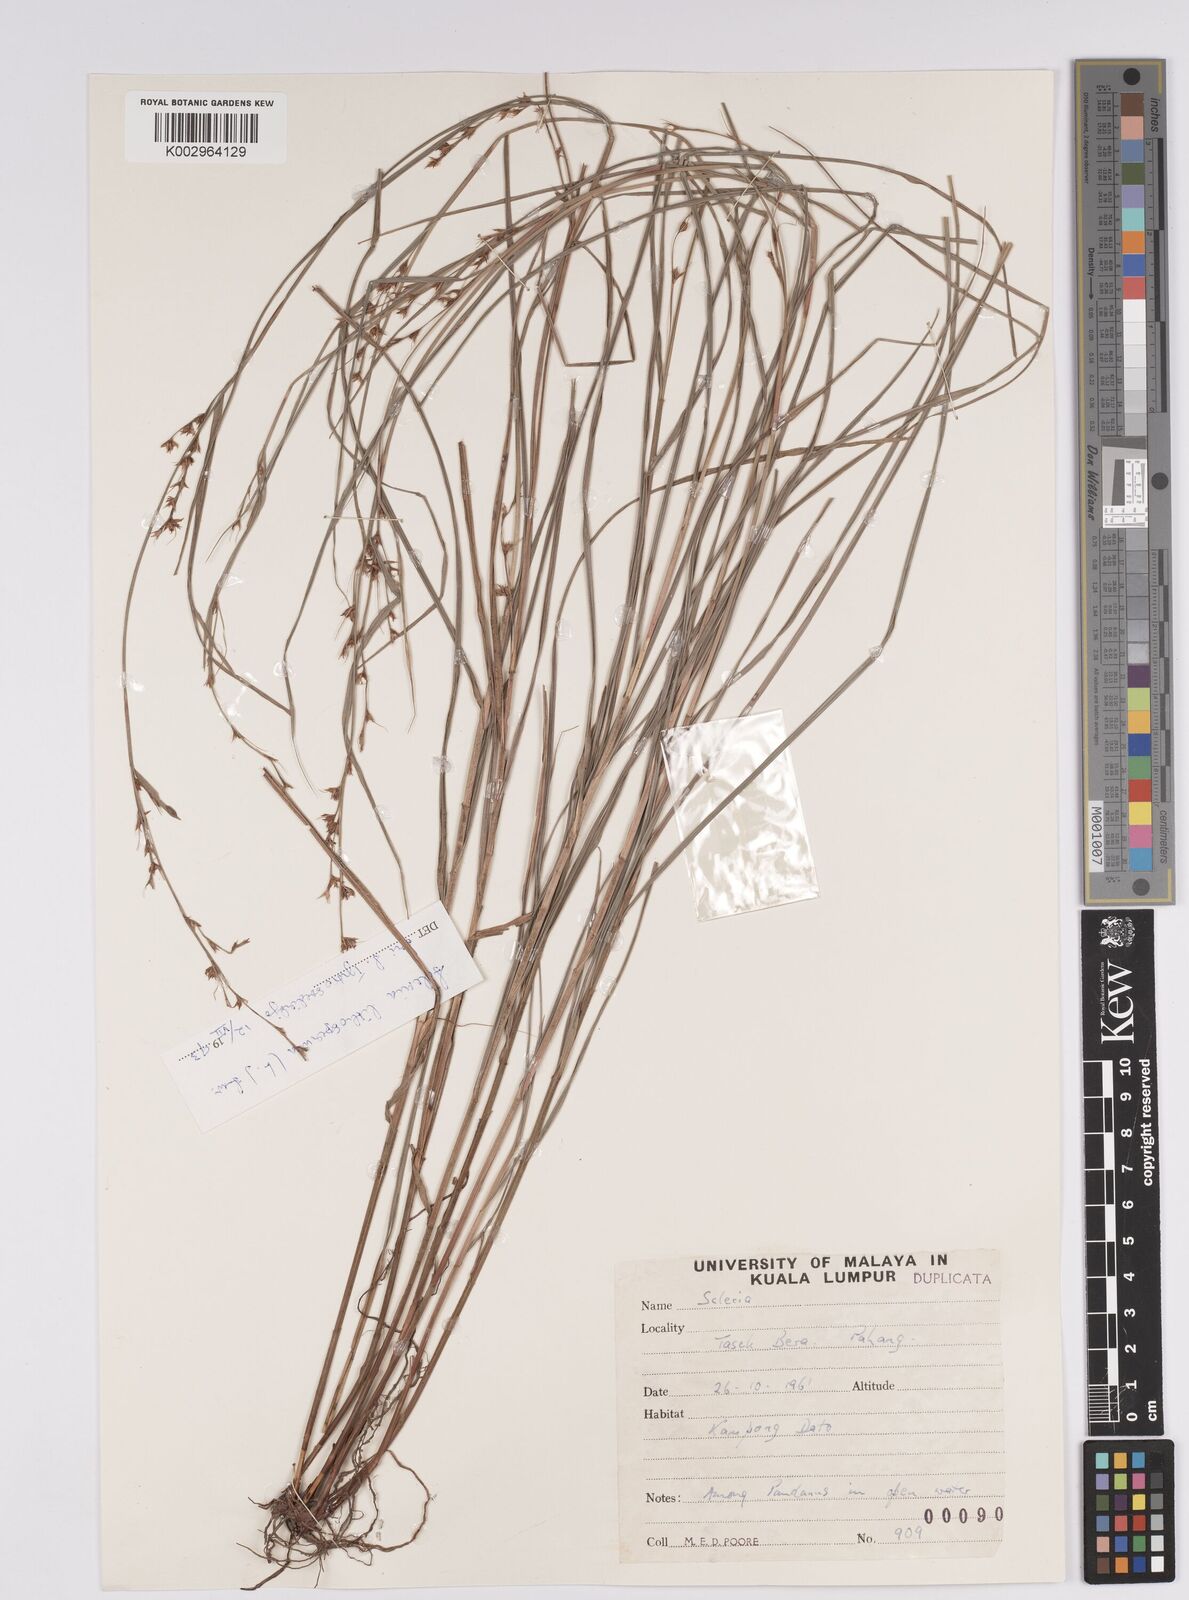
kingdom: Plantae
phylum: Tracheophyta
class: Liliopsida
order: Poales
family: Cyperaceae
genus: Scleria
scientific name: Scleria lithosperma
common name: Florida keys nut-rush
